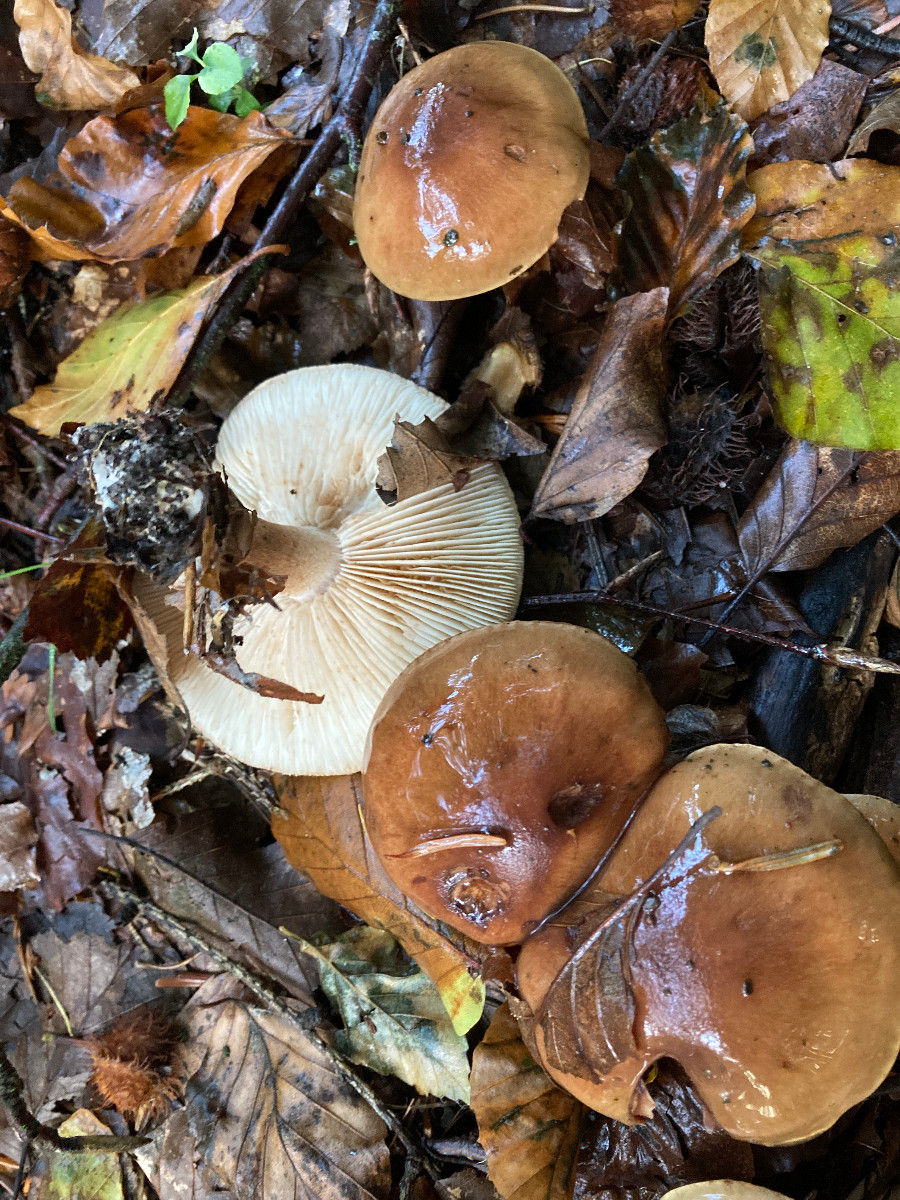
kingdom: Fungi
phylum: Basidiomycota
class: Agaricomycetes
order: Agaricales
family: Tricholomataceae
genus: Tricholoma
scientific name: Tricholoma ustale
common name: sveden ridderhat
